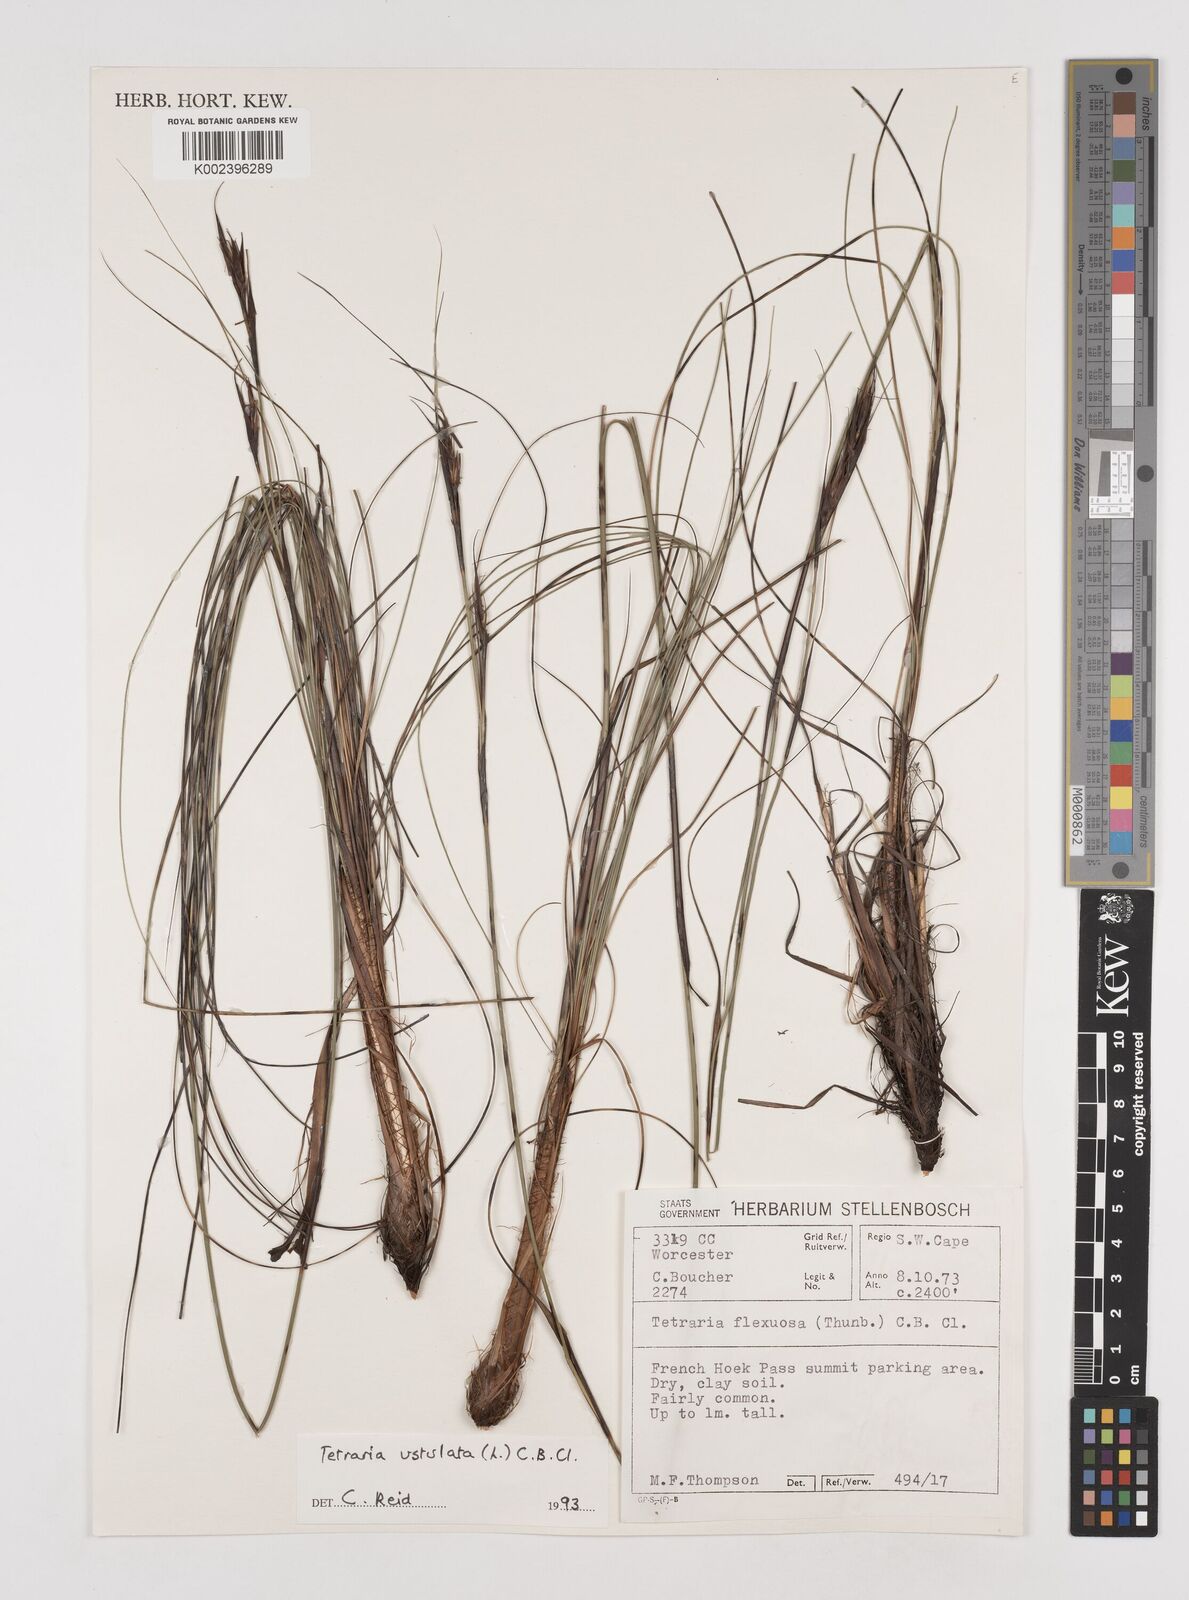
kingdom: Plantae
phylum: Tracheophyta
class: Liliopsida
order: Poales
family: Cyperaceae
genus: Tetraria
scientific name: Tetraria ustulata
